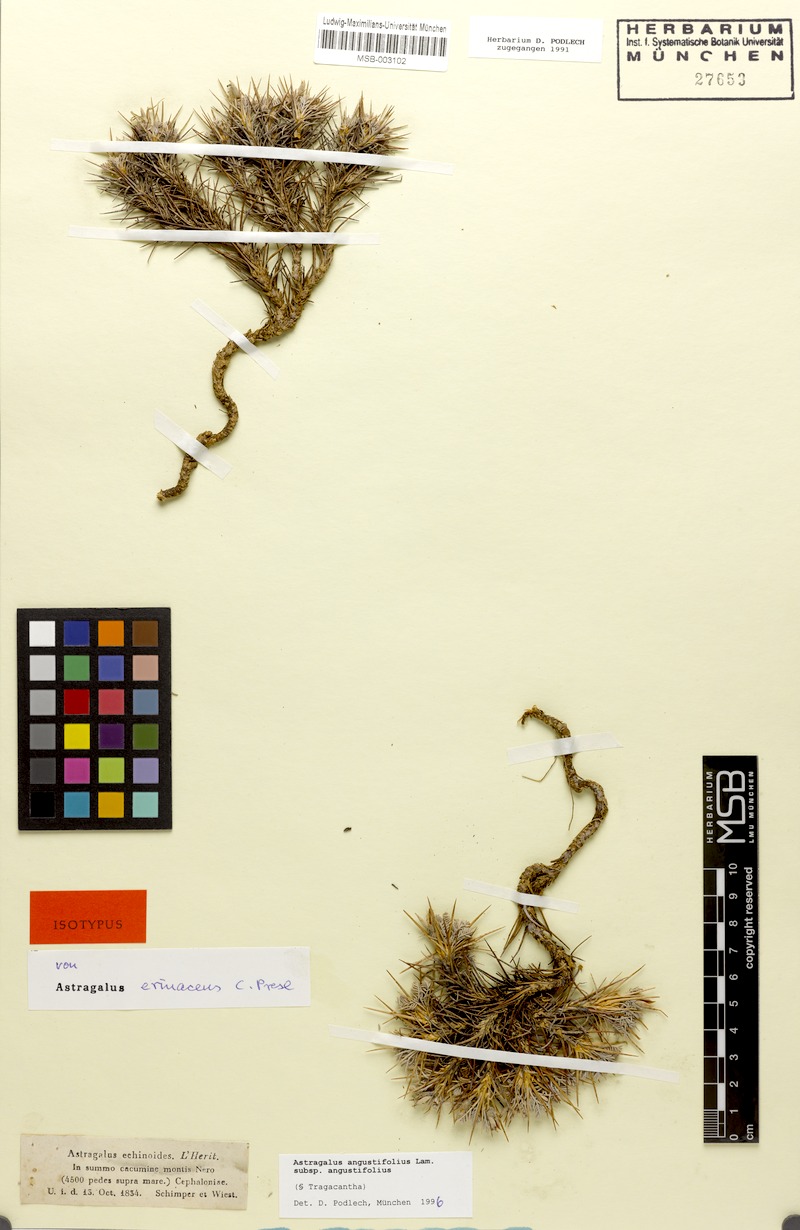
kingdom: Plantae
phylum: Tracheophyta
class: Magnoliopsida
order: Fabales
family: Fabaceae
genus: Astragalus
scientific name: Astragalus angustifolius
